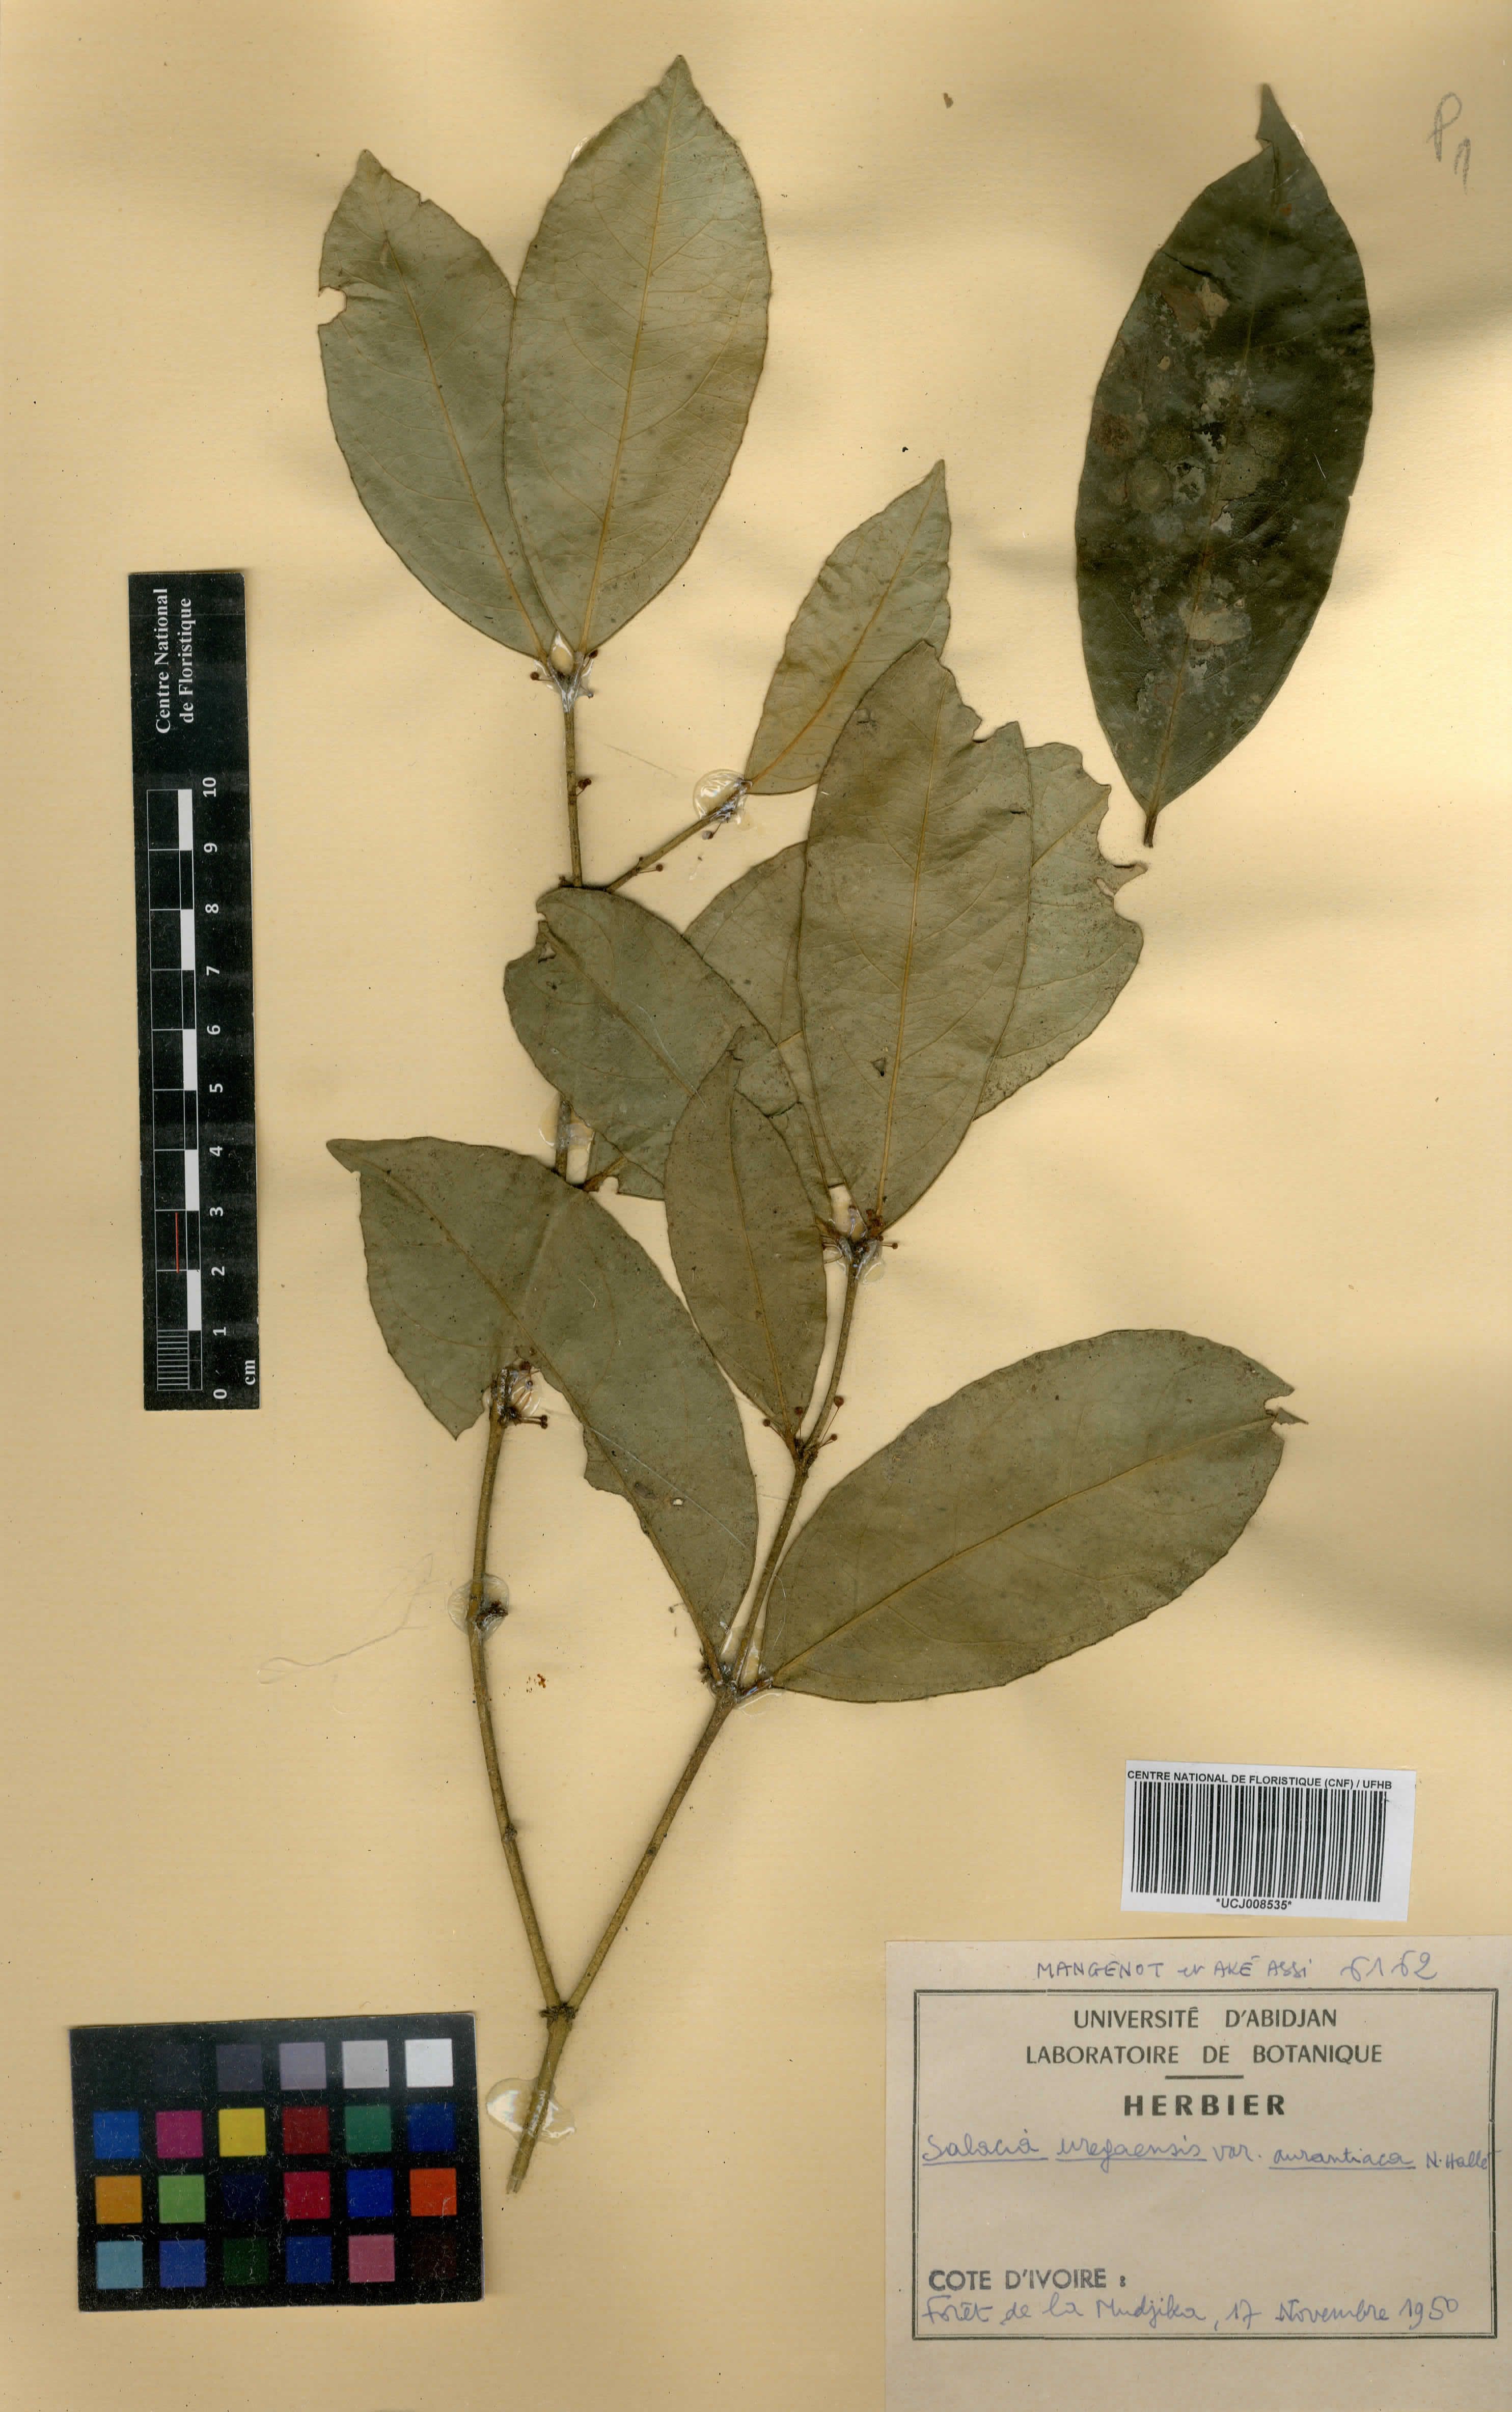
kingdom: Plantae
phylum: Tracheophyta
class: Magnoliopsida
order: Celastrales
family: Celastraceae
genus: Salacia
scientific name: Salacia lehmbachii
